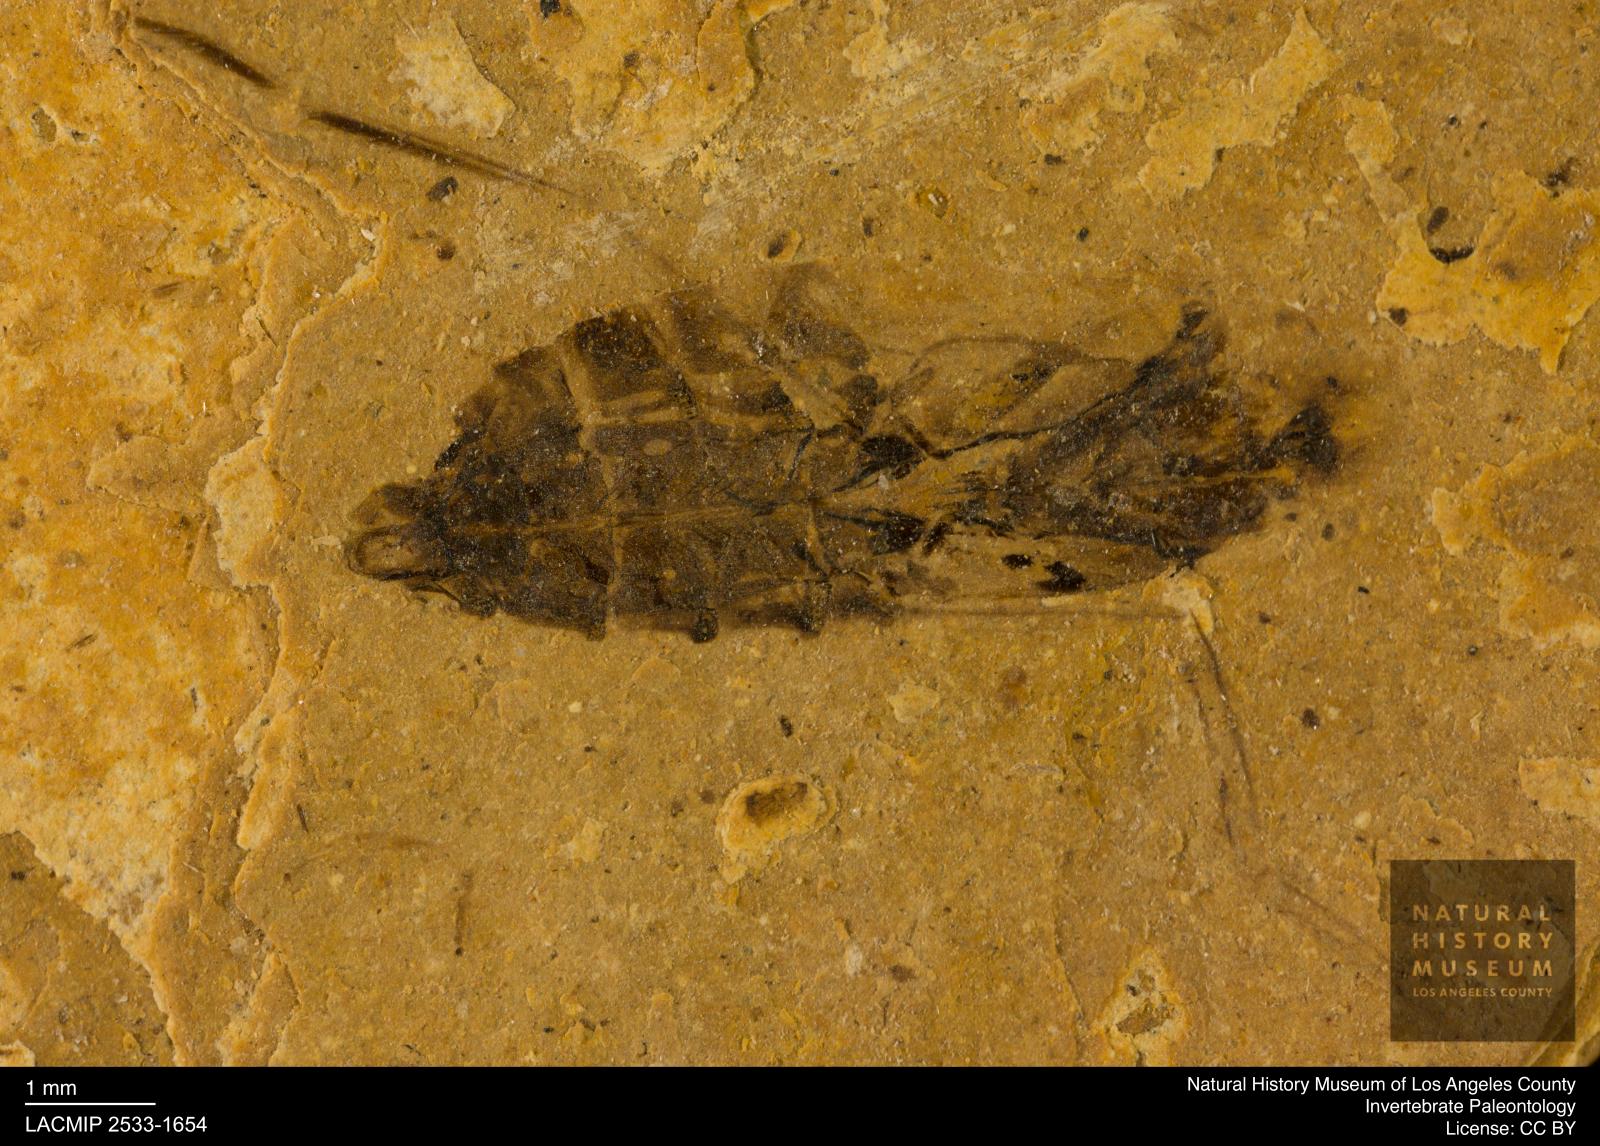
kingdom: Animalia
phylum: Arthropoda
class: Insecta
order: Hemiptera
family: Notonectidae
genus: Notonecta
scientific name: Notonecta
